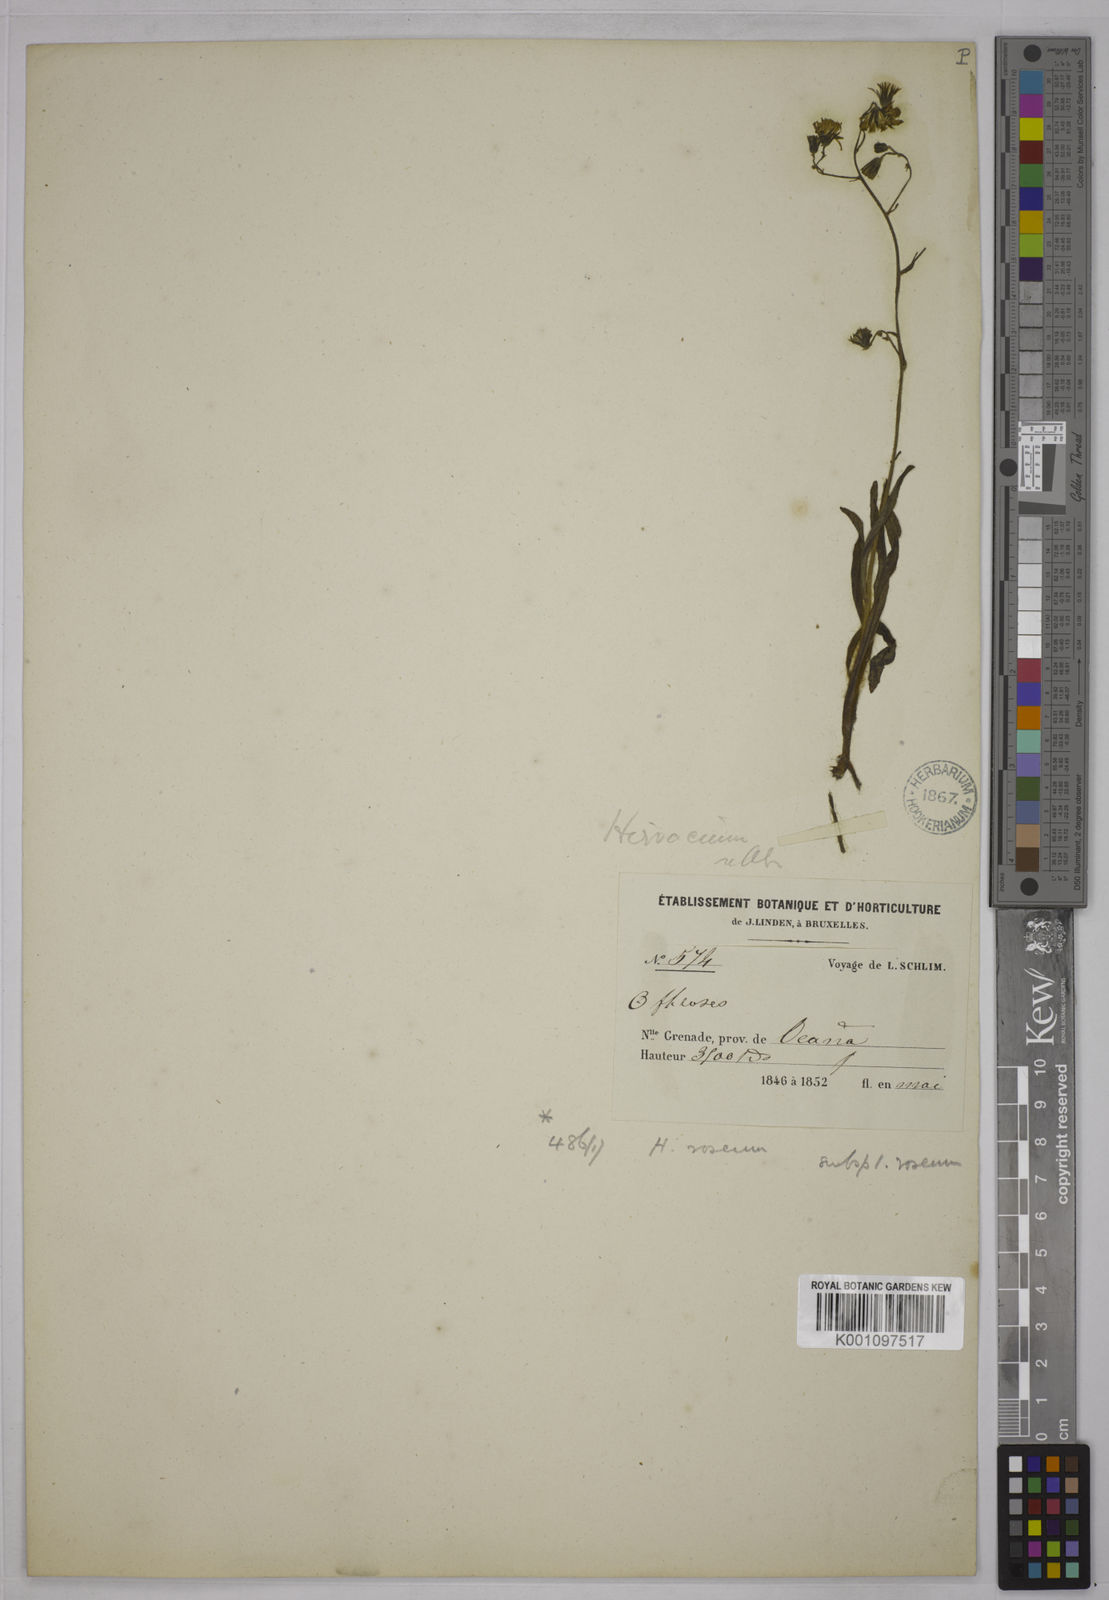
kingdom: Plantae
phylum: Tracheophyta
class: Magnoliopsida
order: Asterales
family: Asteraceae
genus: Hieracium
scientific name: Hieracium roseum
